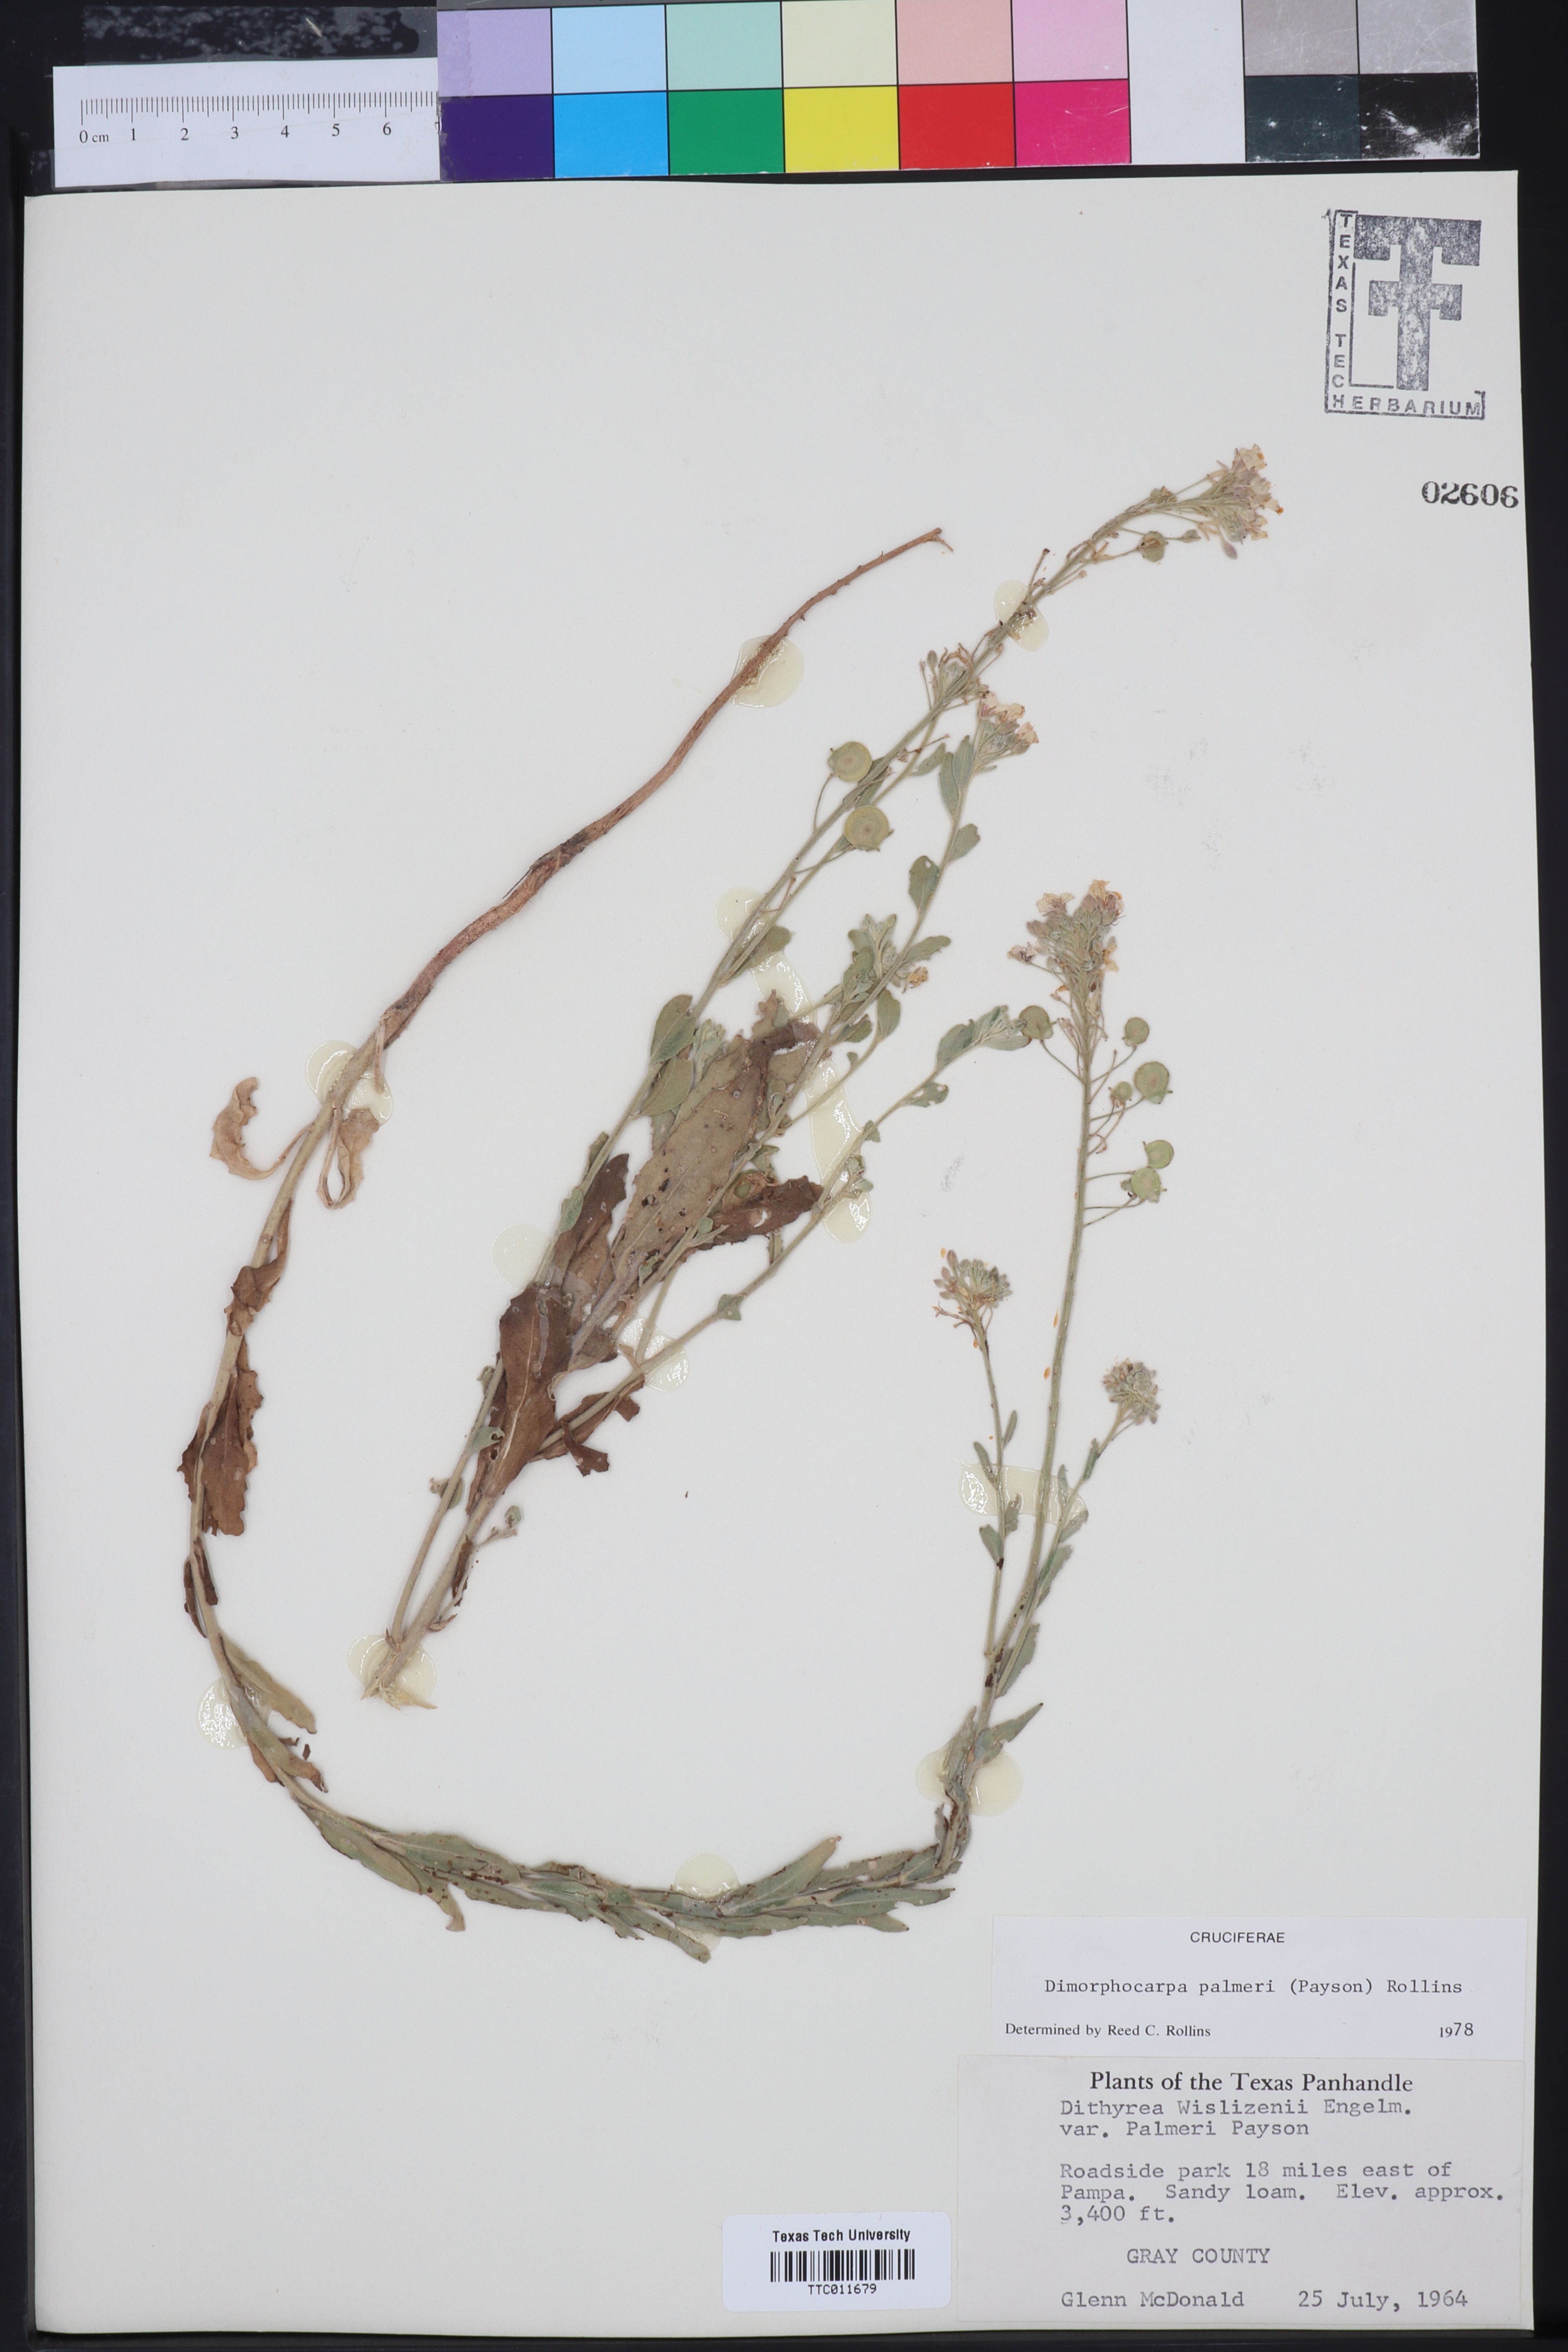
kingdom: Plantae
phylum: Tracheophyta
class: Magnoliopsida
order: Brassicales
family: Brassicaceae
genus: Dimorphocarpa
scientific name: Dimorphocarpa candicans
